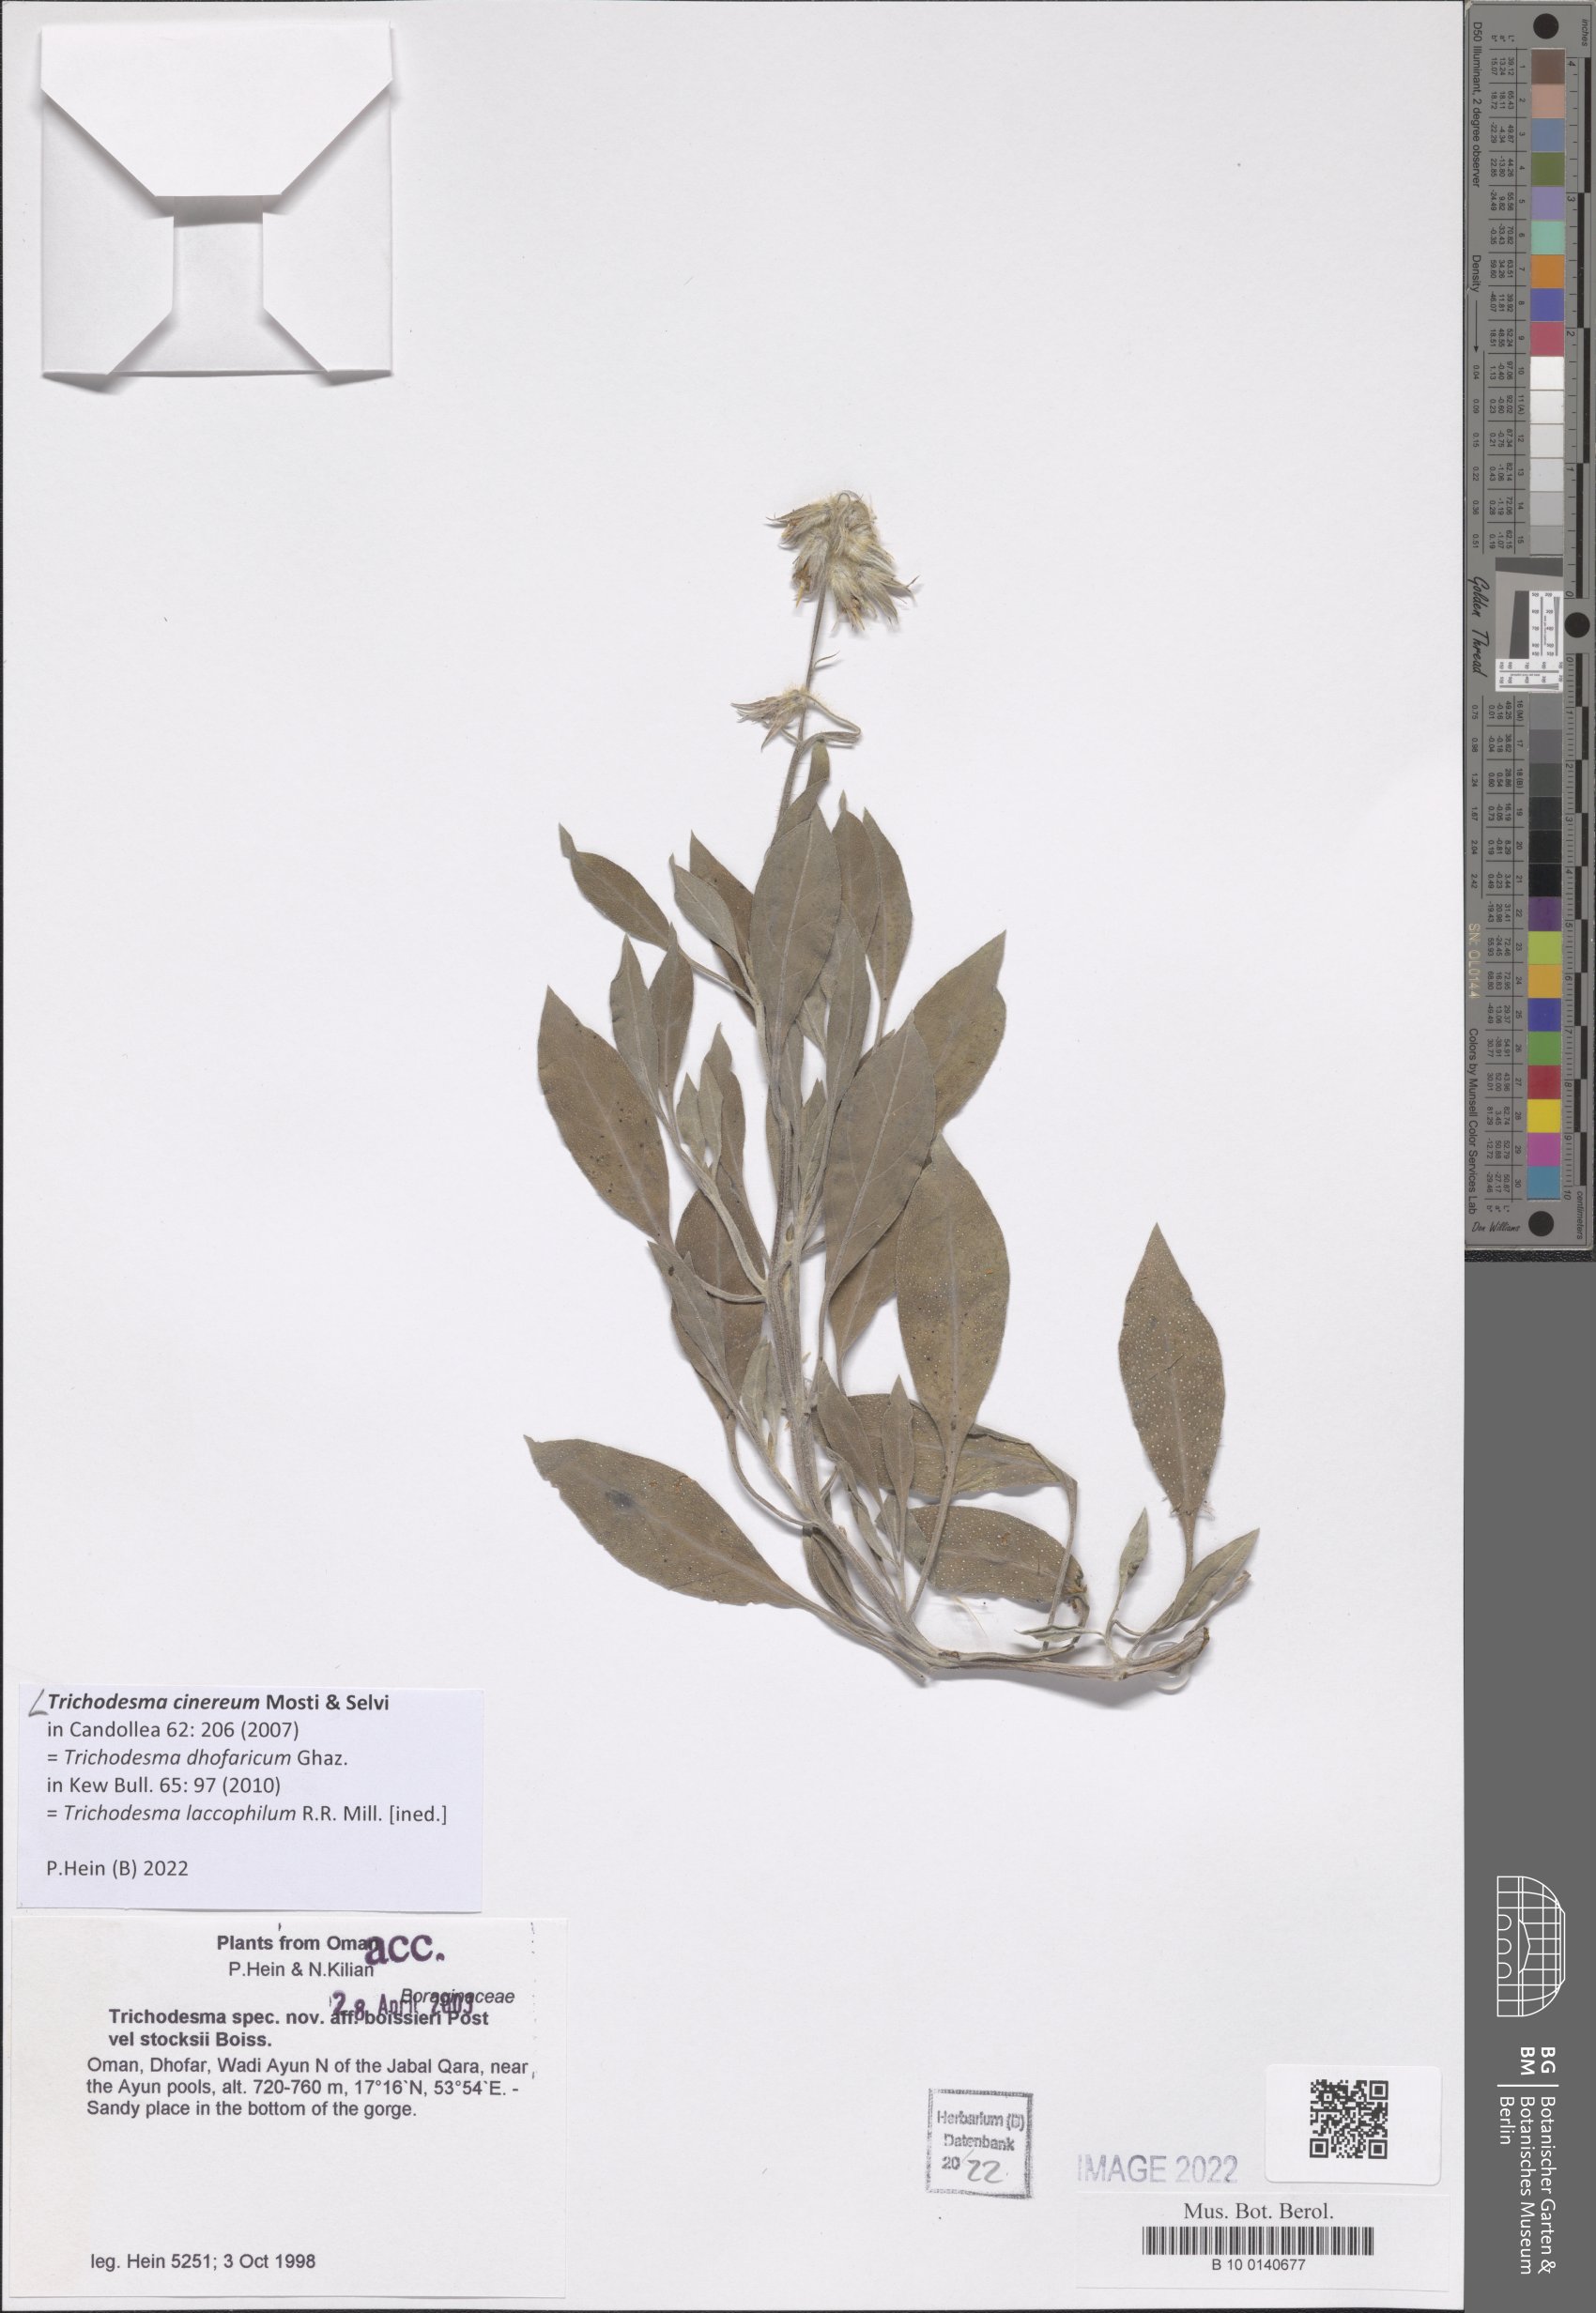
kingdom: Plantae
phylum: Tracheophyta
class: Magnoliopsida
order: Boraginales
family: Boraginaceae
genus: Trichodesma
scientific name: Trichodesma cinereum
